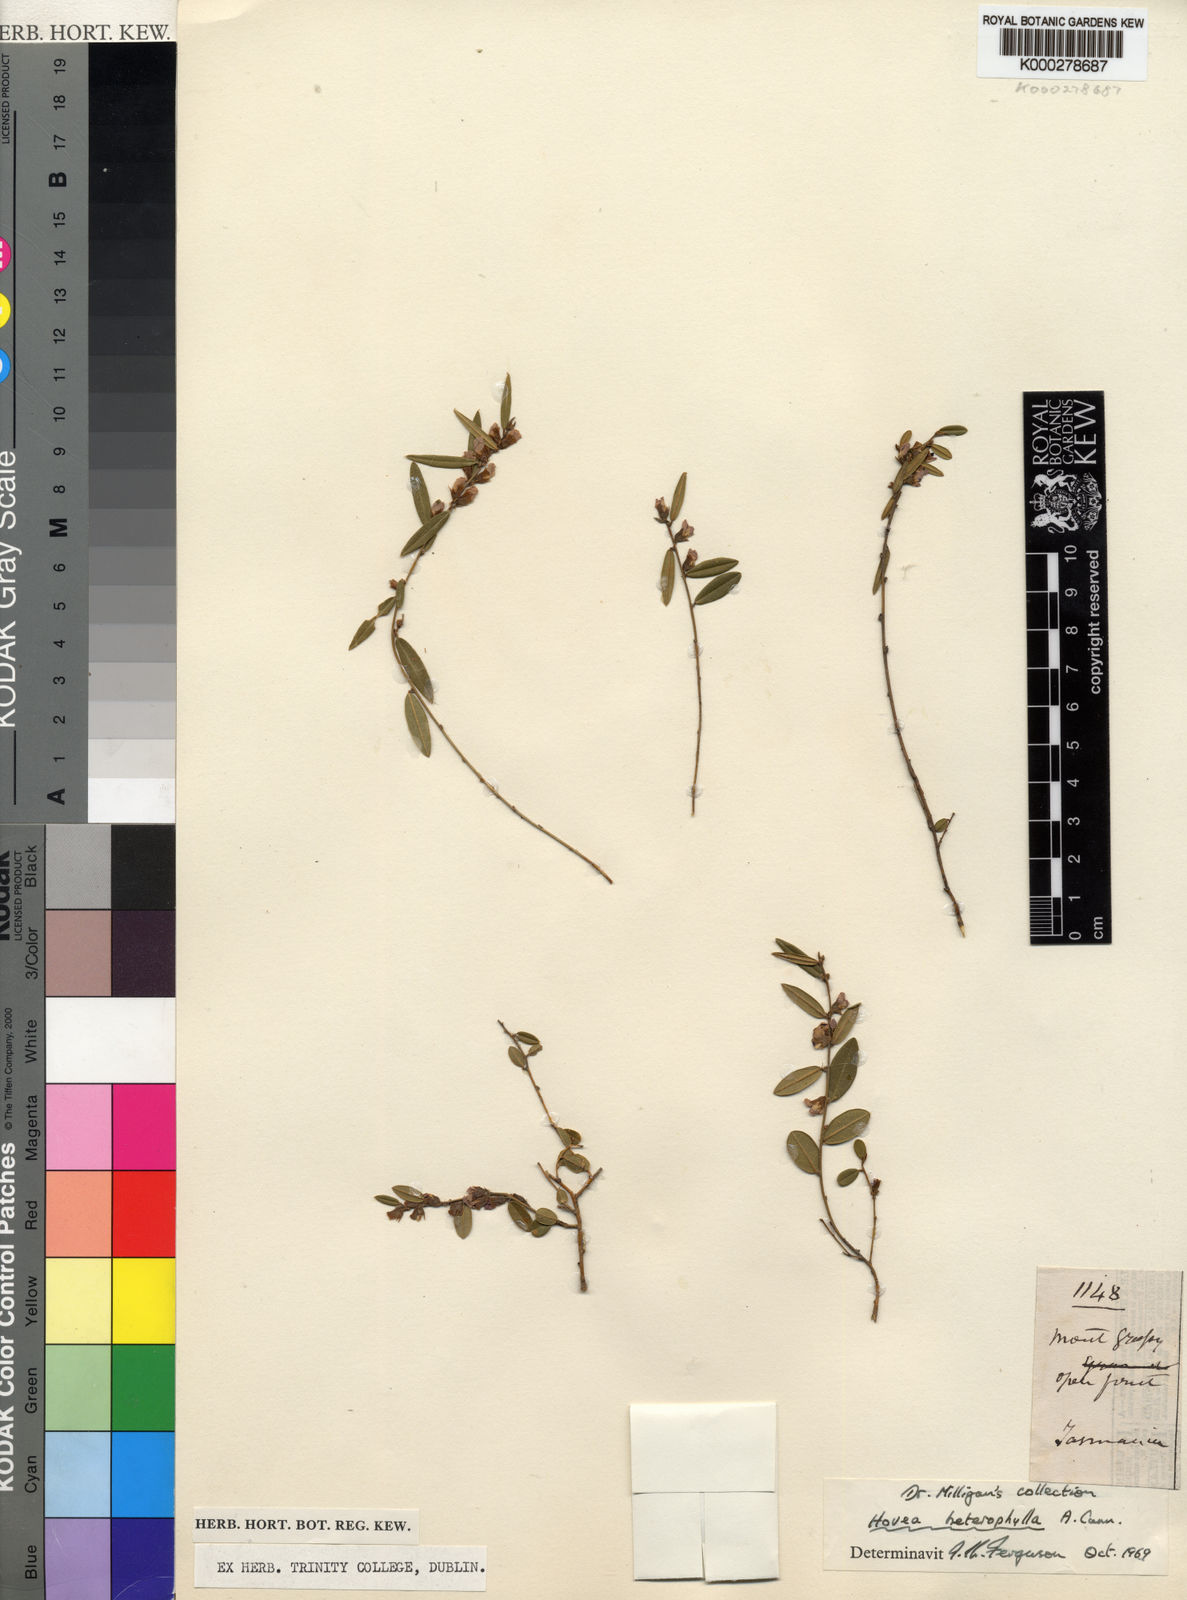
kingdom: Plantae
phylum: Tracheophyta
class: Magnoliopsida
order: Fabales
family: Fabaceae
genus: Hovea
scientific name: Hovea heterophylla
